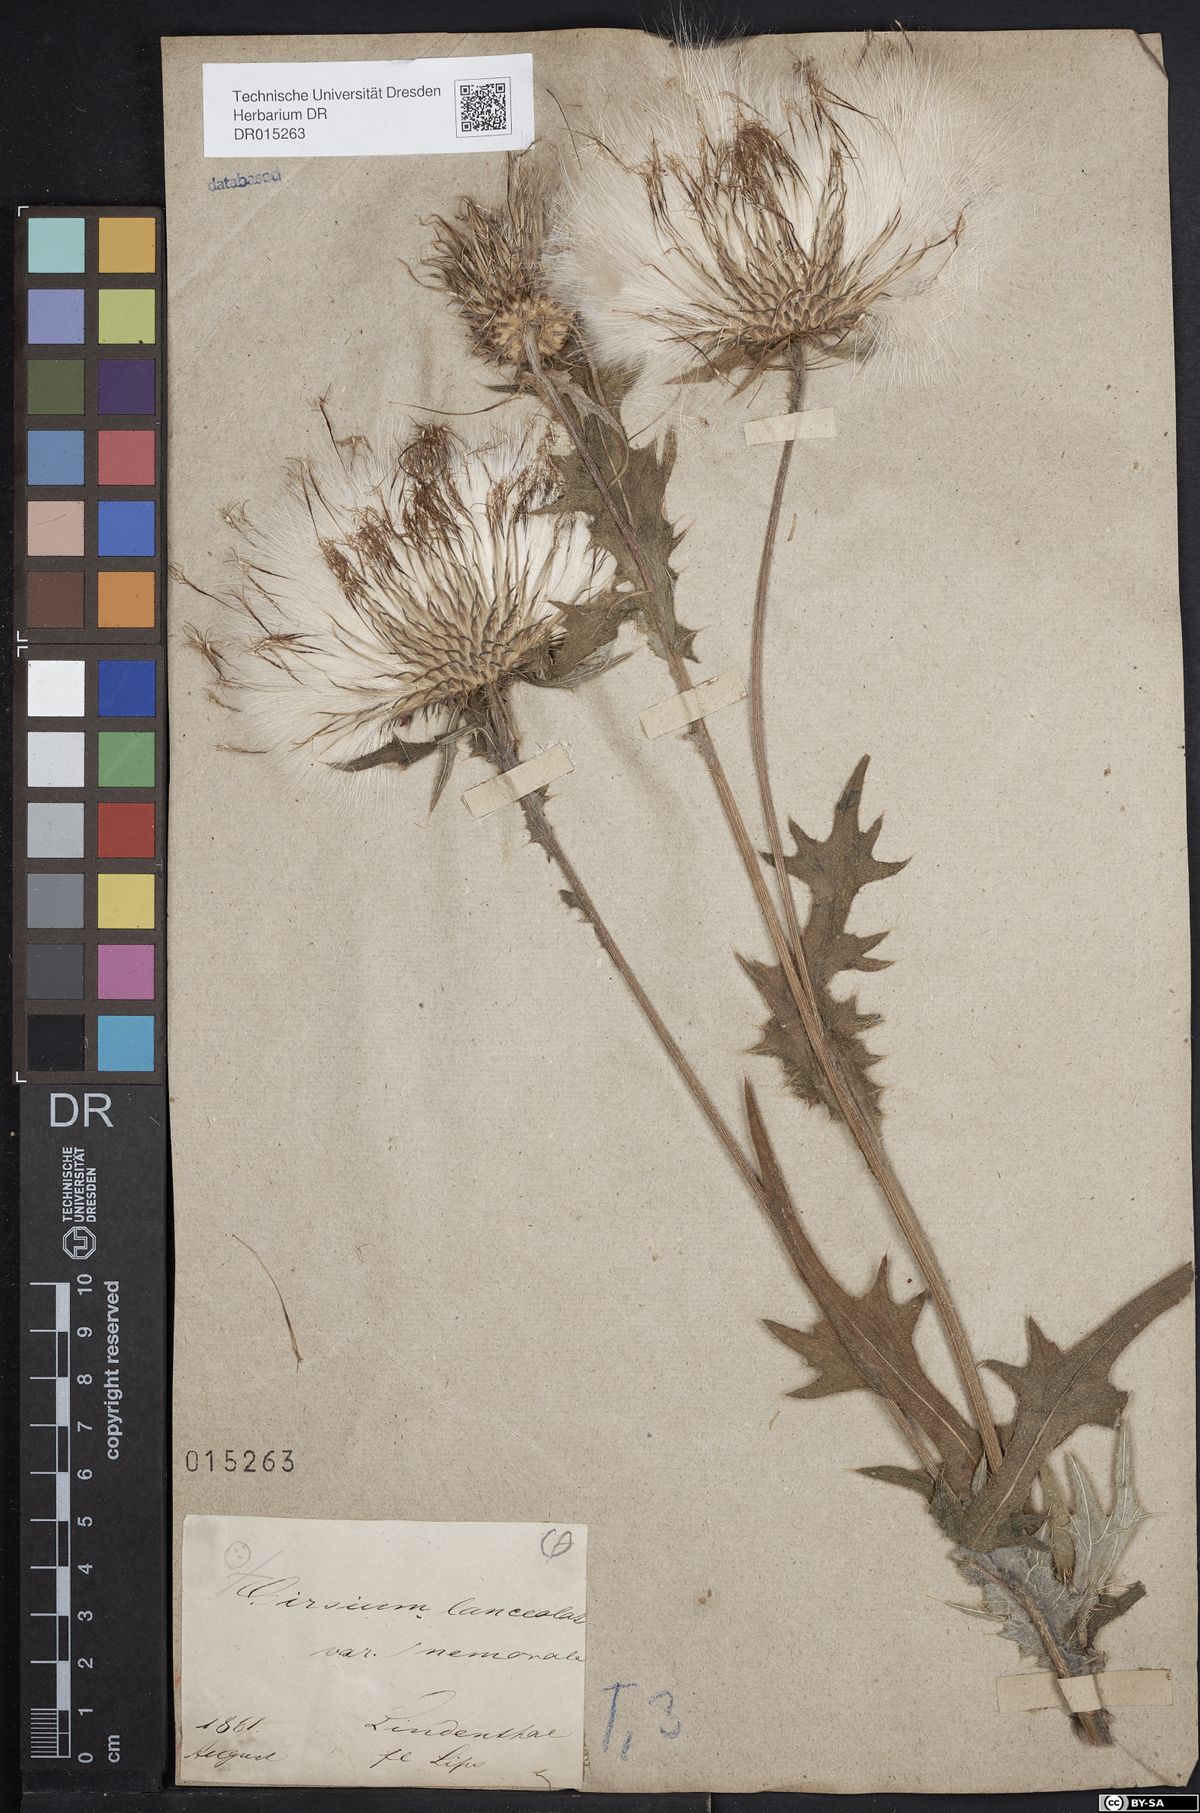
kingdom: Plantae
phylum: Tracheophyta
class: Magnoliopsida
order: Asterales
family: Asteraceae
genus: Cirsium
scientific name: Cirsium vulgare
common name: Bull thistle
